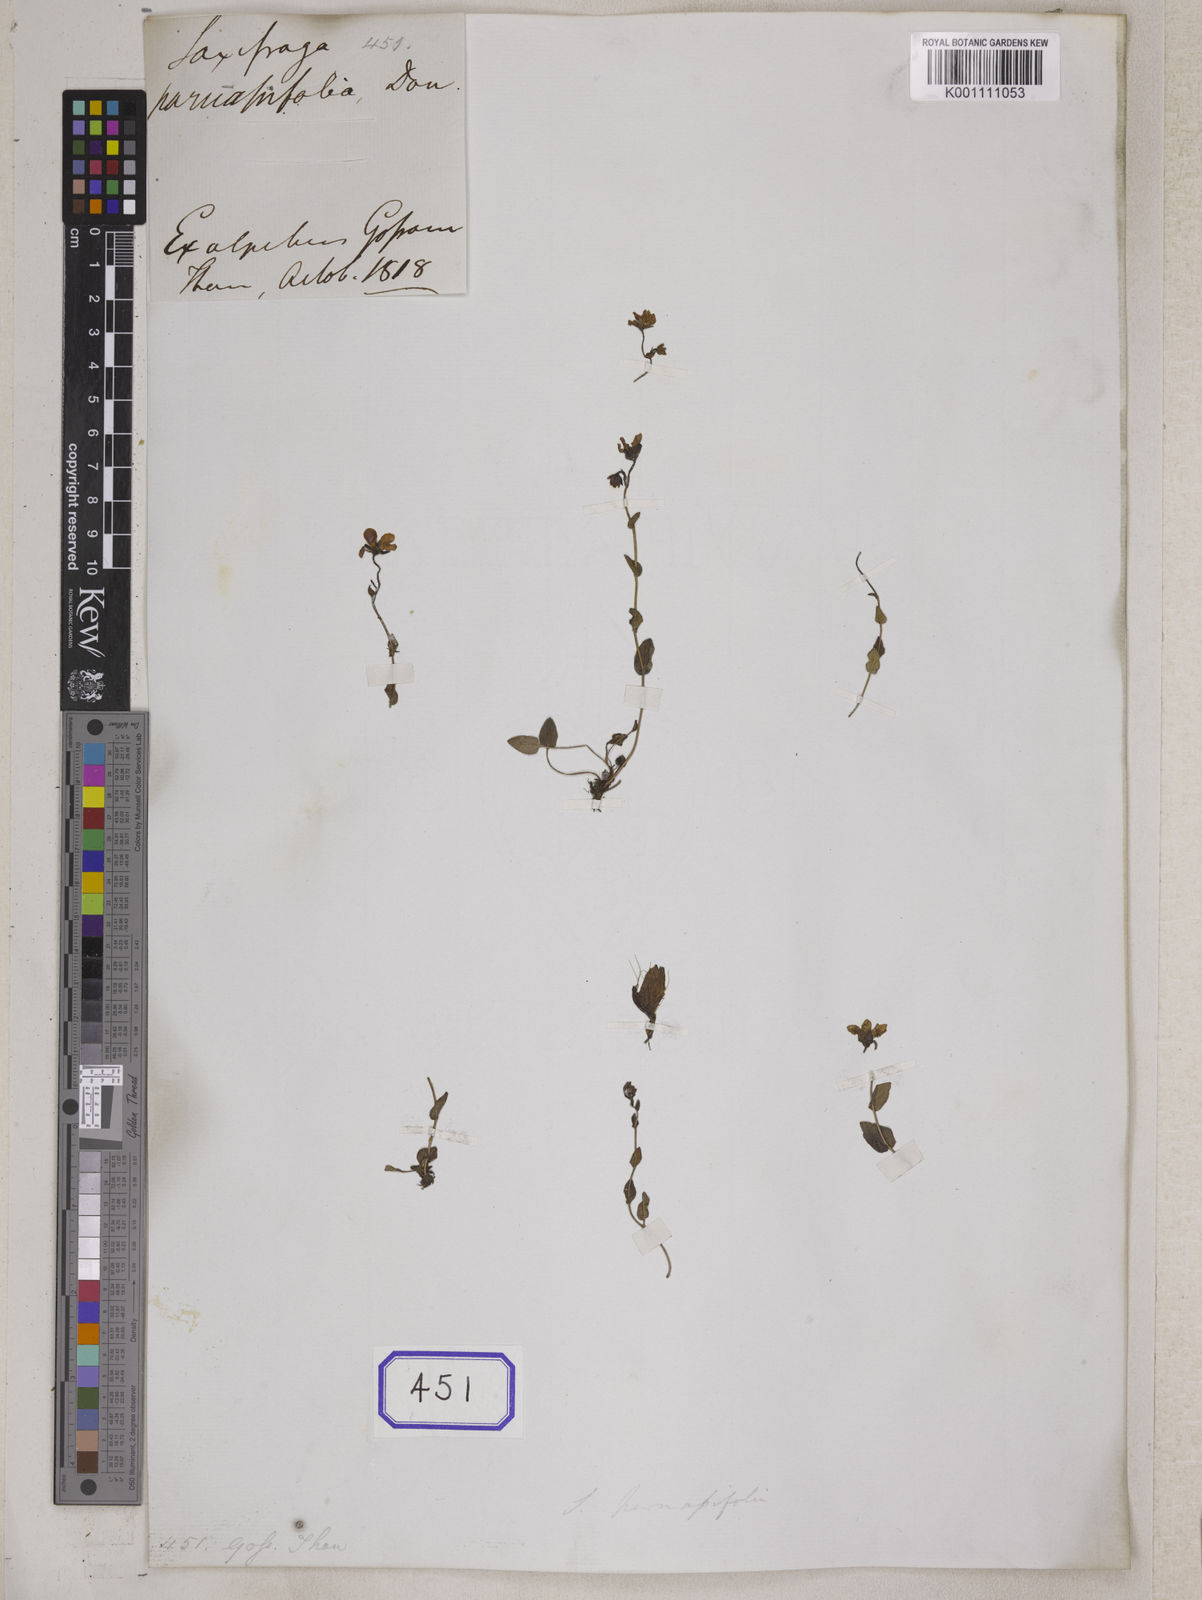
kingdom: Plantae
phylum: Tracheophyta
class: Magnoliopsida
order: Saxifragales
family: Saxifragaceae
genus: Saxifraga
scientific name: Saxifraga parnassifolia
